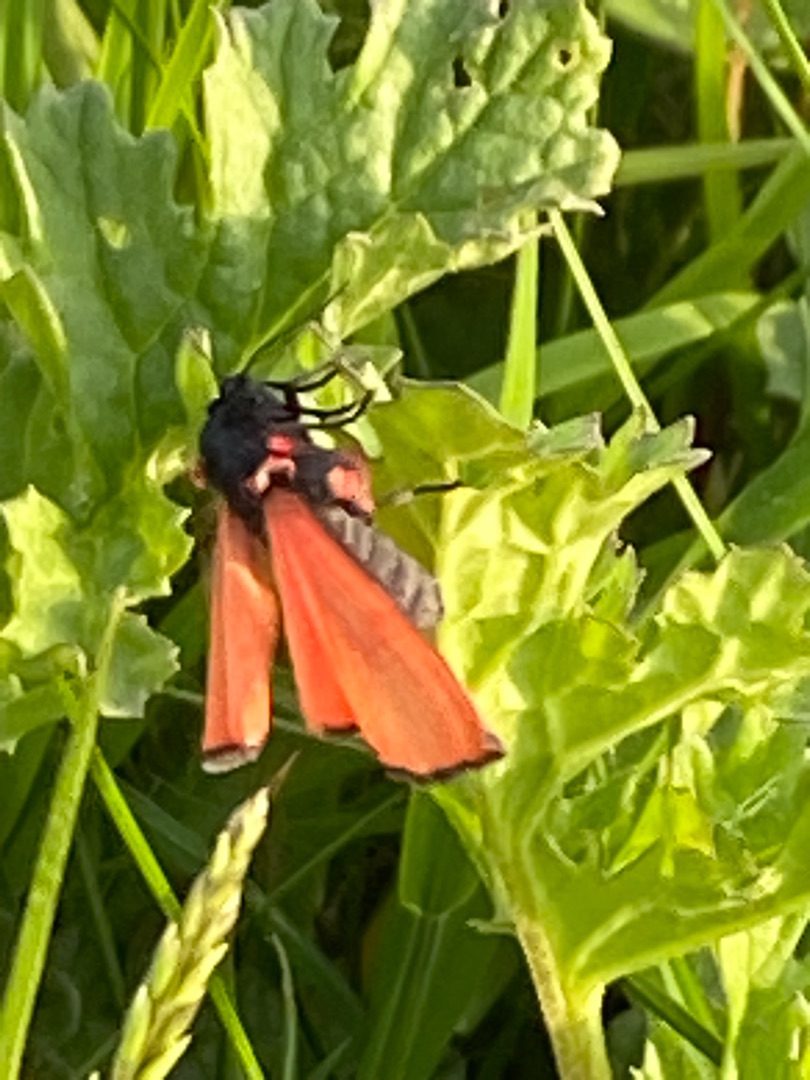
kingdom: Animalia
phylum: Arthropoda
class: Insecta
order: Lepidoptera
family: Erebidae
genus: Tyria
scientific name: Tyria jacobaeae
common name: Blodplet
